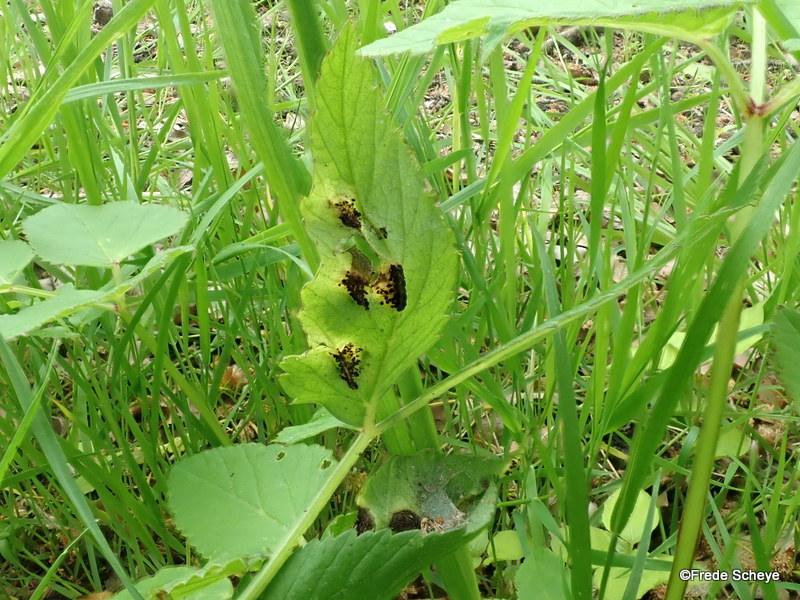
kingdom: Fungi
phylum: Basidiomycota
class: Pucciniomycetes
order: Pucciniales
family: Pucciniaceae
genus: Puccinia
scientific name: Puccinia
